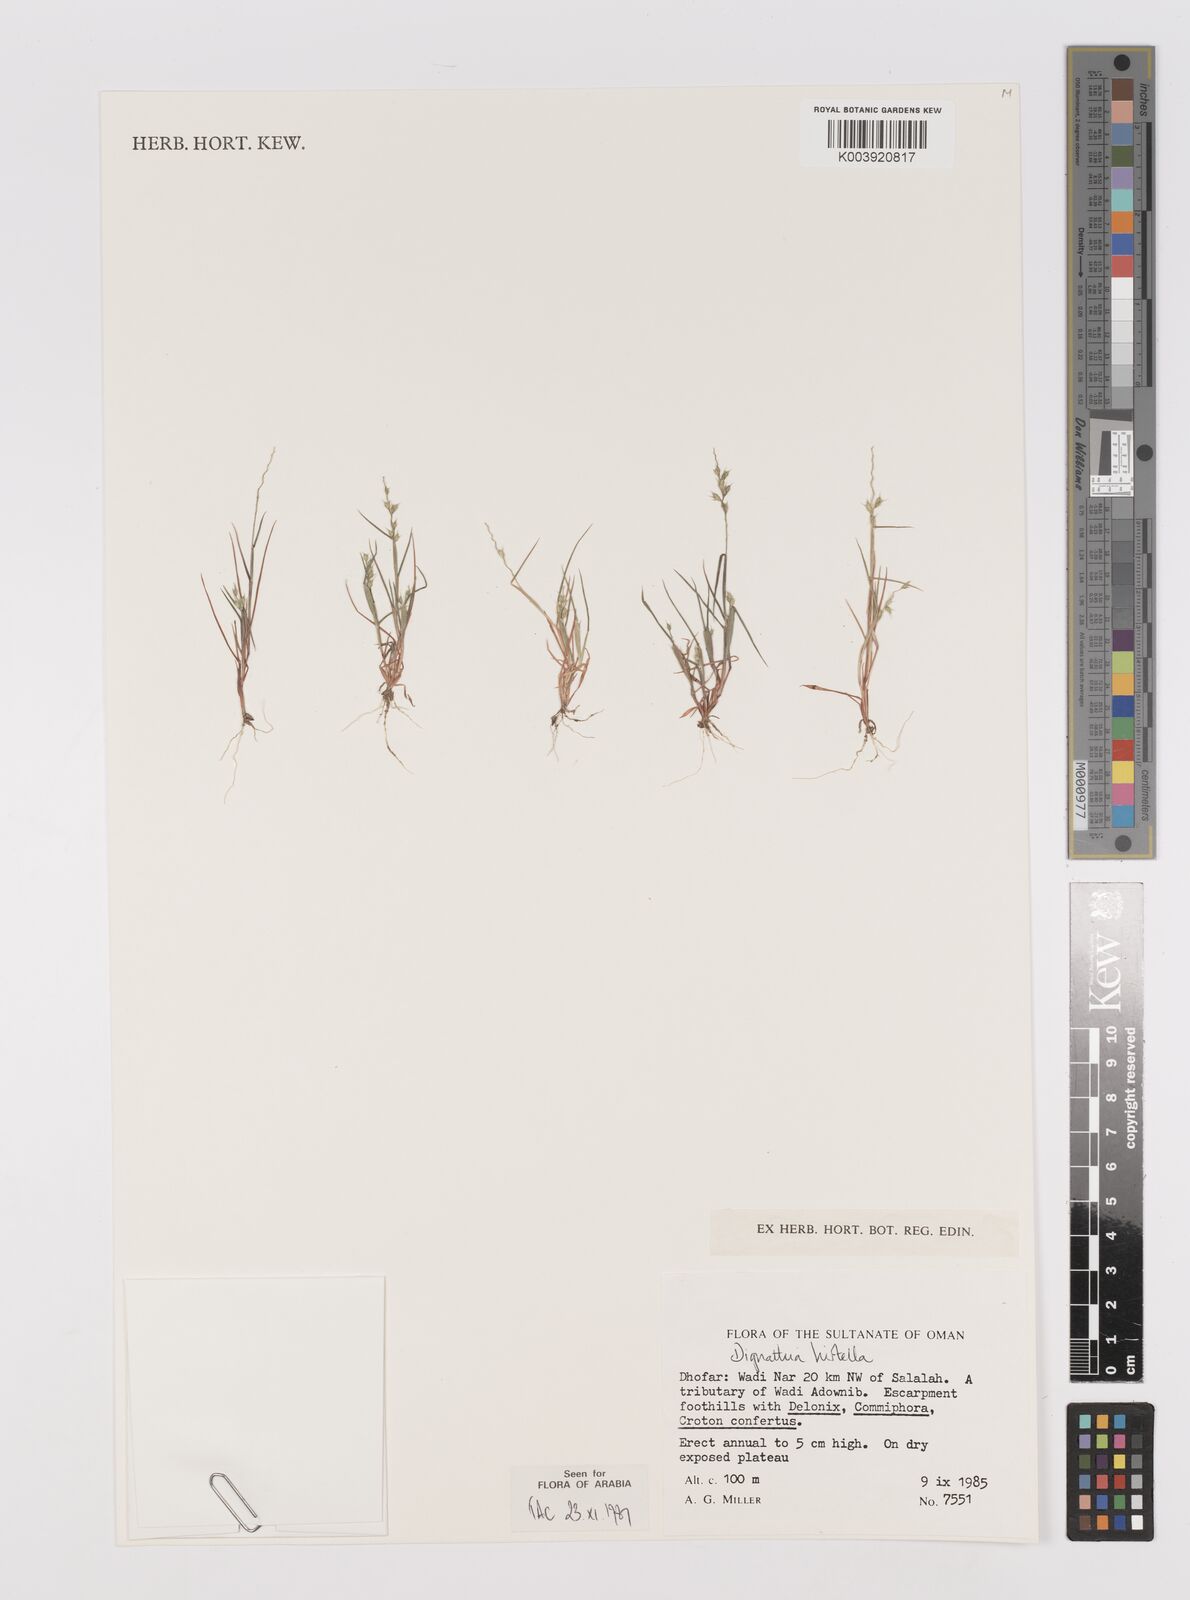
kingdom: Plantae
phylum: Tracheophyta
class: Liliopsida
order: Poales
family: Poaceae
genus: Dignathia
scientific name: Dignathia hirtella
